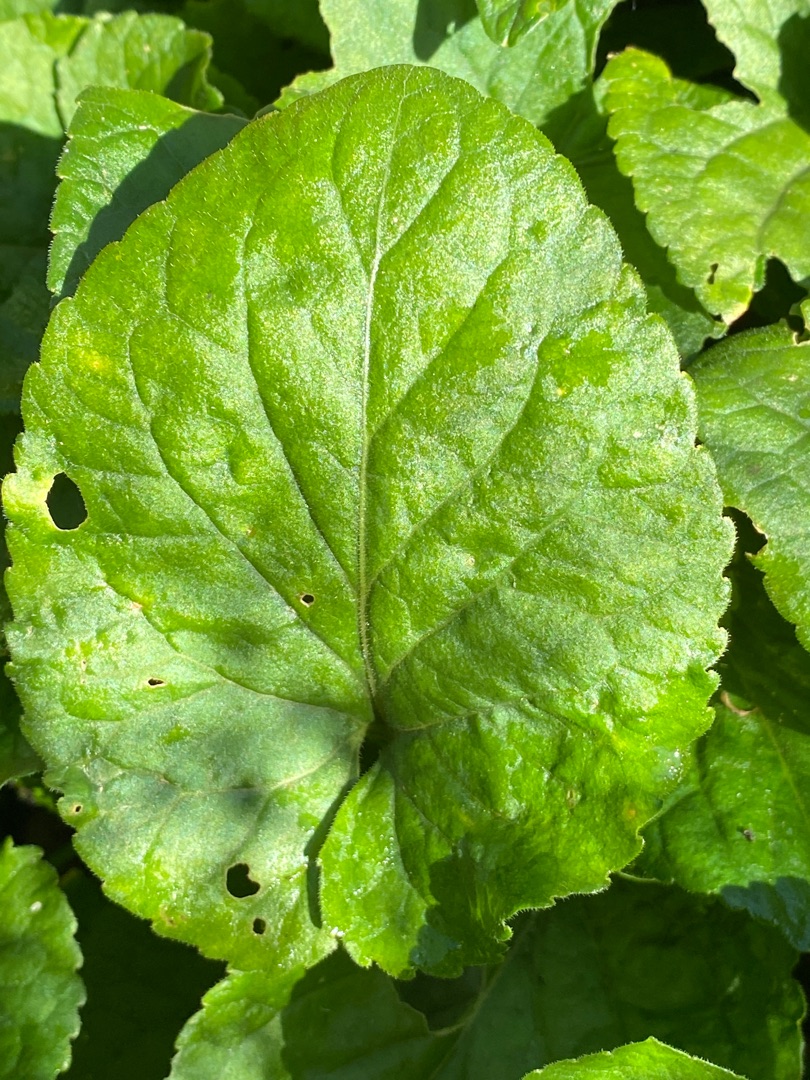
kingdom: Plantae
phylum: Tracheophyta
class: Magnoliopsida
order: Malpighiales
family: Violaceae
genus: Viola
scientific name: Viola odorata
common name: Marts-viol
